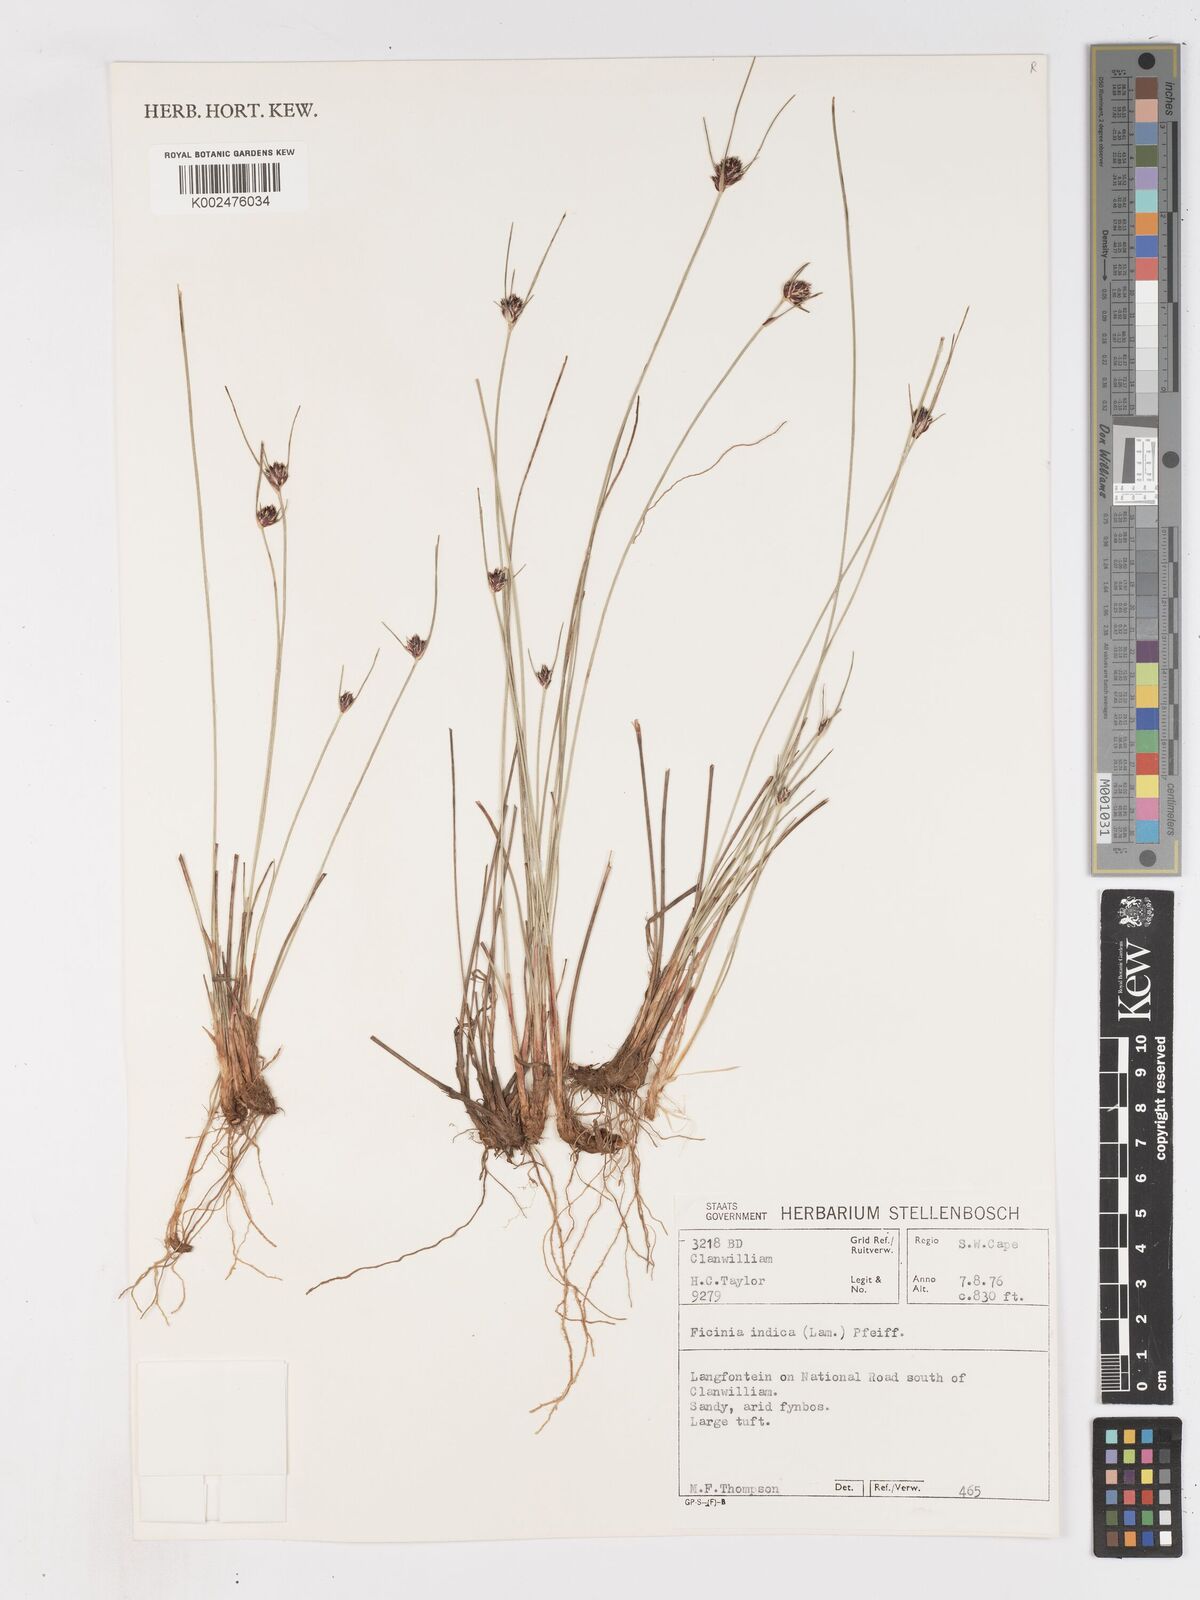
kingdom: Plantae
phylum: Tracheophyta
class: Liliopsida
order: Poales
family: Cyperaceae
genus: Ficinia
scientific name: Ficinia indica
